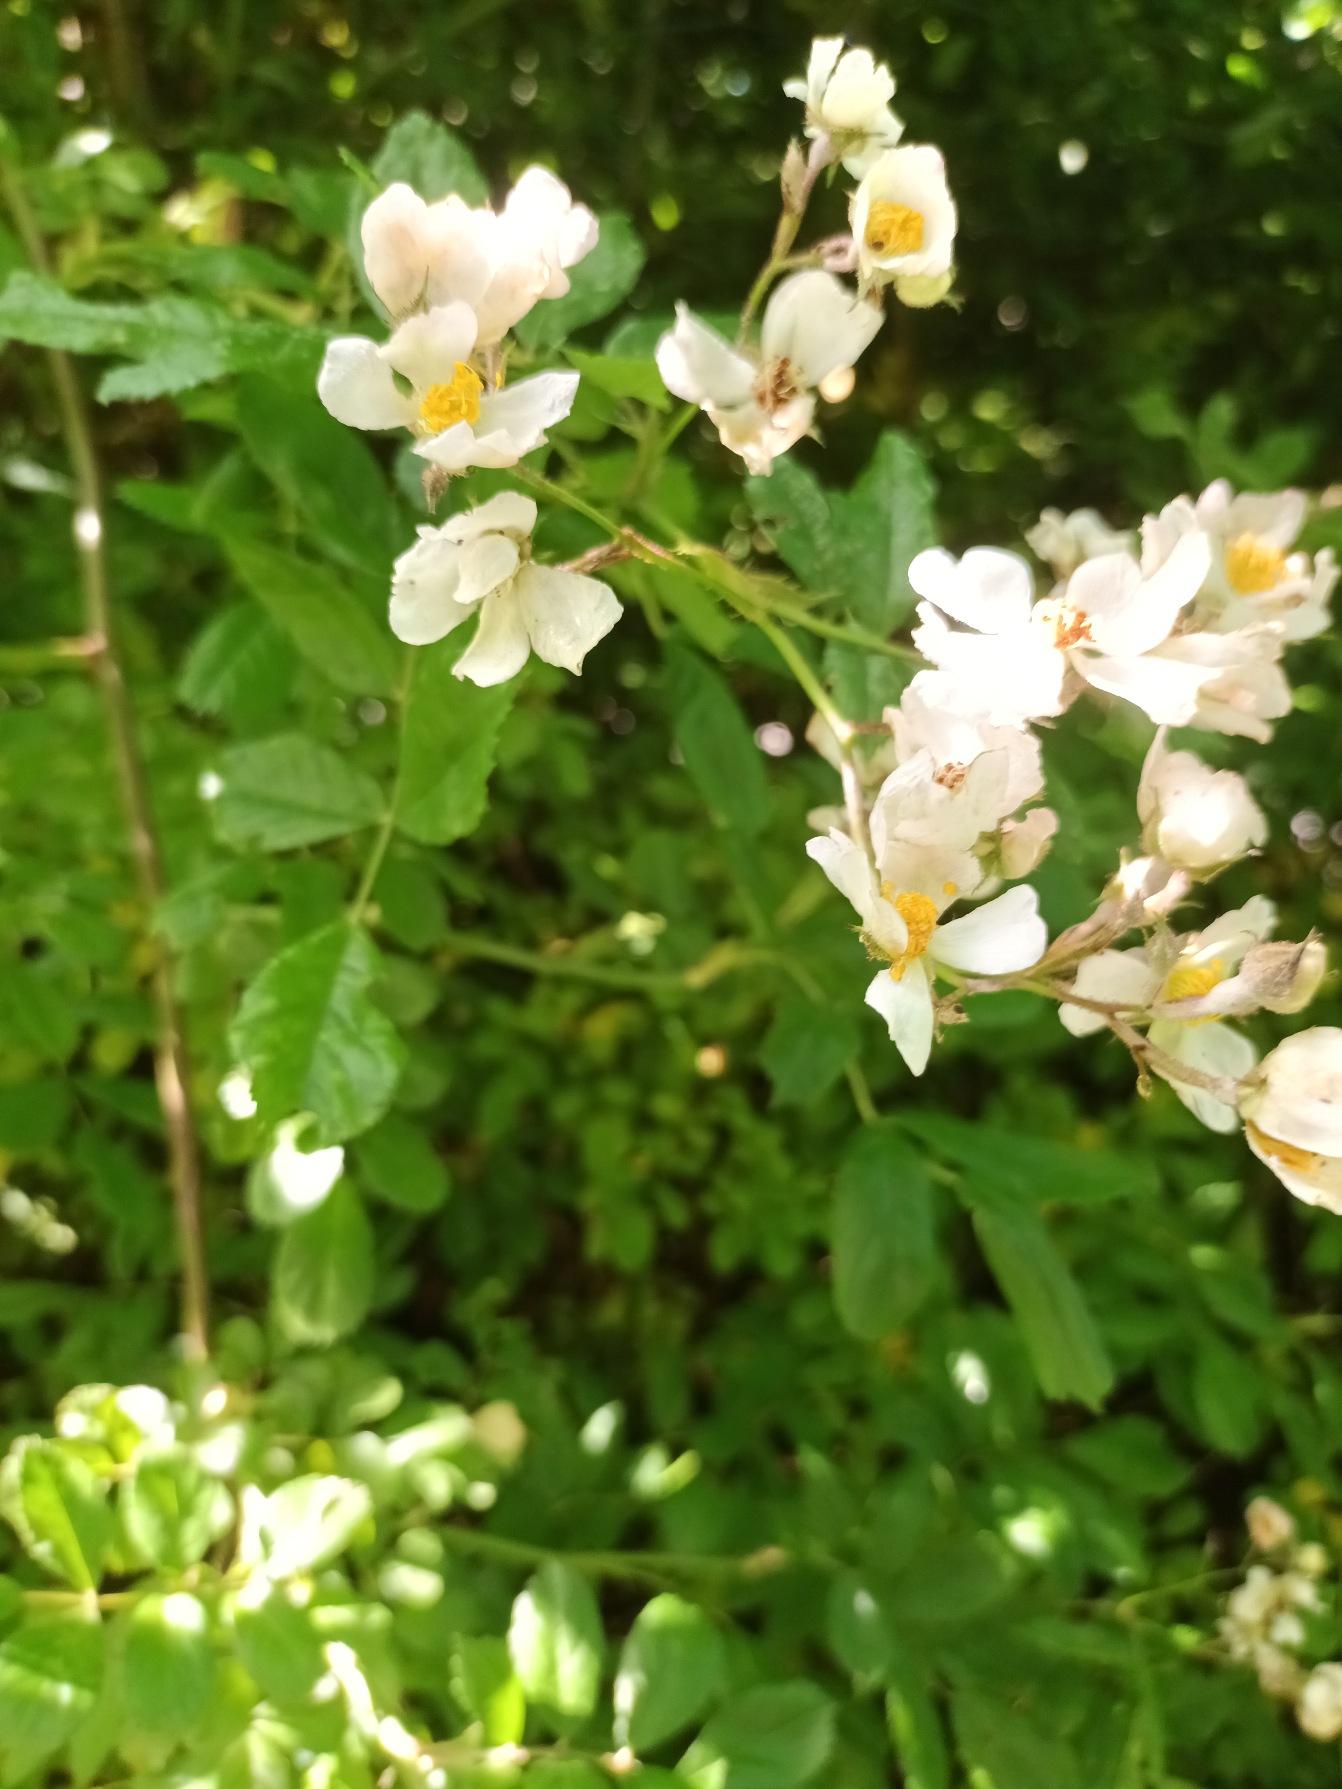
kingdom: Plantae
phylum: Tracheophyta
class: Magnoliopsida
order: Rosales
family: Rosaceae
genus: Rosa
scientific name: Rosa multiflora
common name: Mangeblomstret rose
